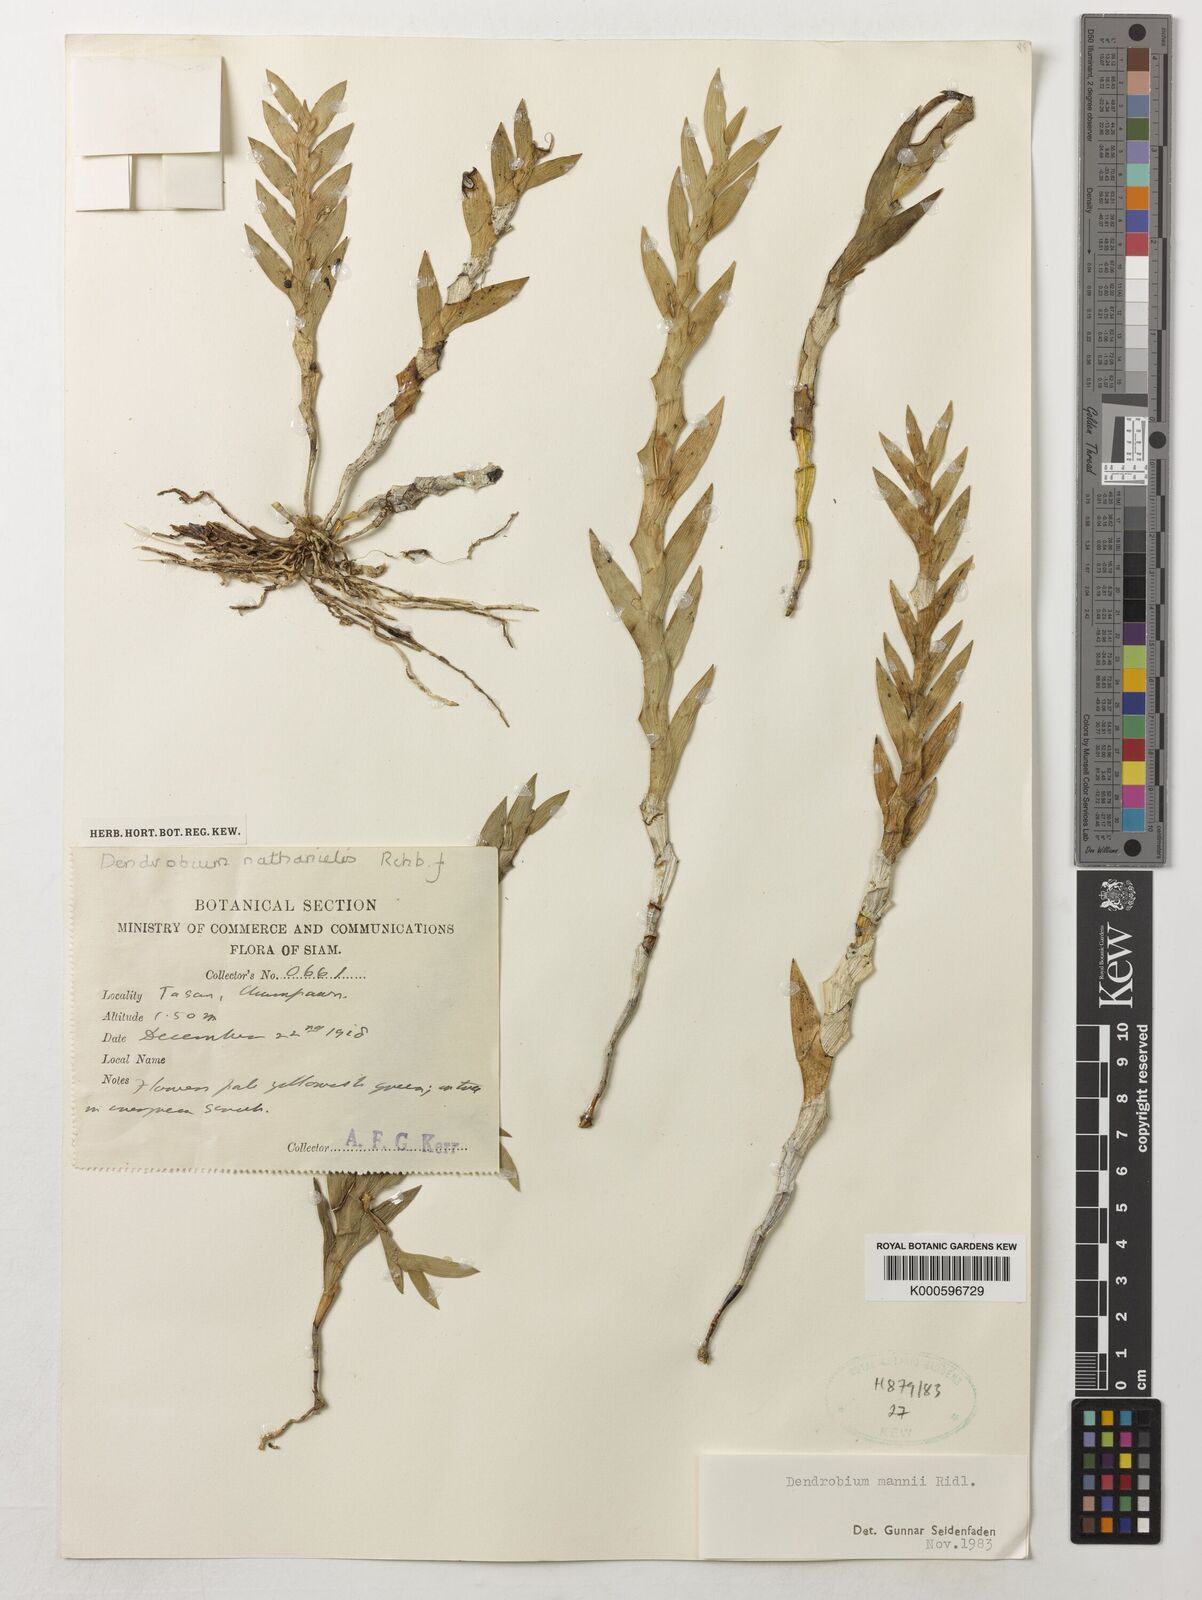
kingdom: Plantae
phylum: Tracheophyta
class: Liliopsida
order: Asparagales
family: Orchidaceae
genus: Dendrobium
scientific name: Dendrobium mannii
